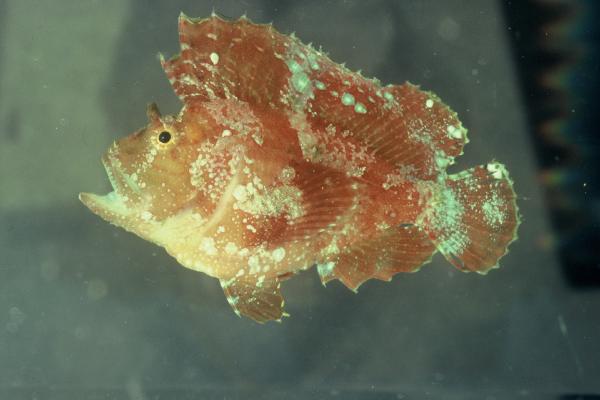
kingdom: Animalia
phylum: Chordata
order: Scorpaeniformes
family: Scorpaenidae
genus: Taenianotus
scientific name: Taenianotus triacanthus
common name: Leaf scorpionfish
